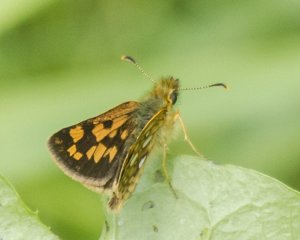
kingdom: Animalia
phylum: Arthropoda
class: Insecta
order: Lepidoptera
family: Hesperiidae
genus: Carterocephalus
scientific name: Carterocephalus palaemon
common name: Chequered Skipper
